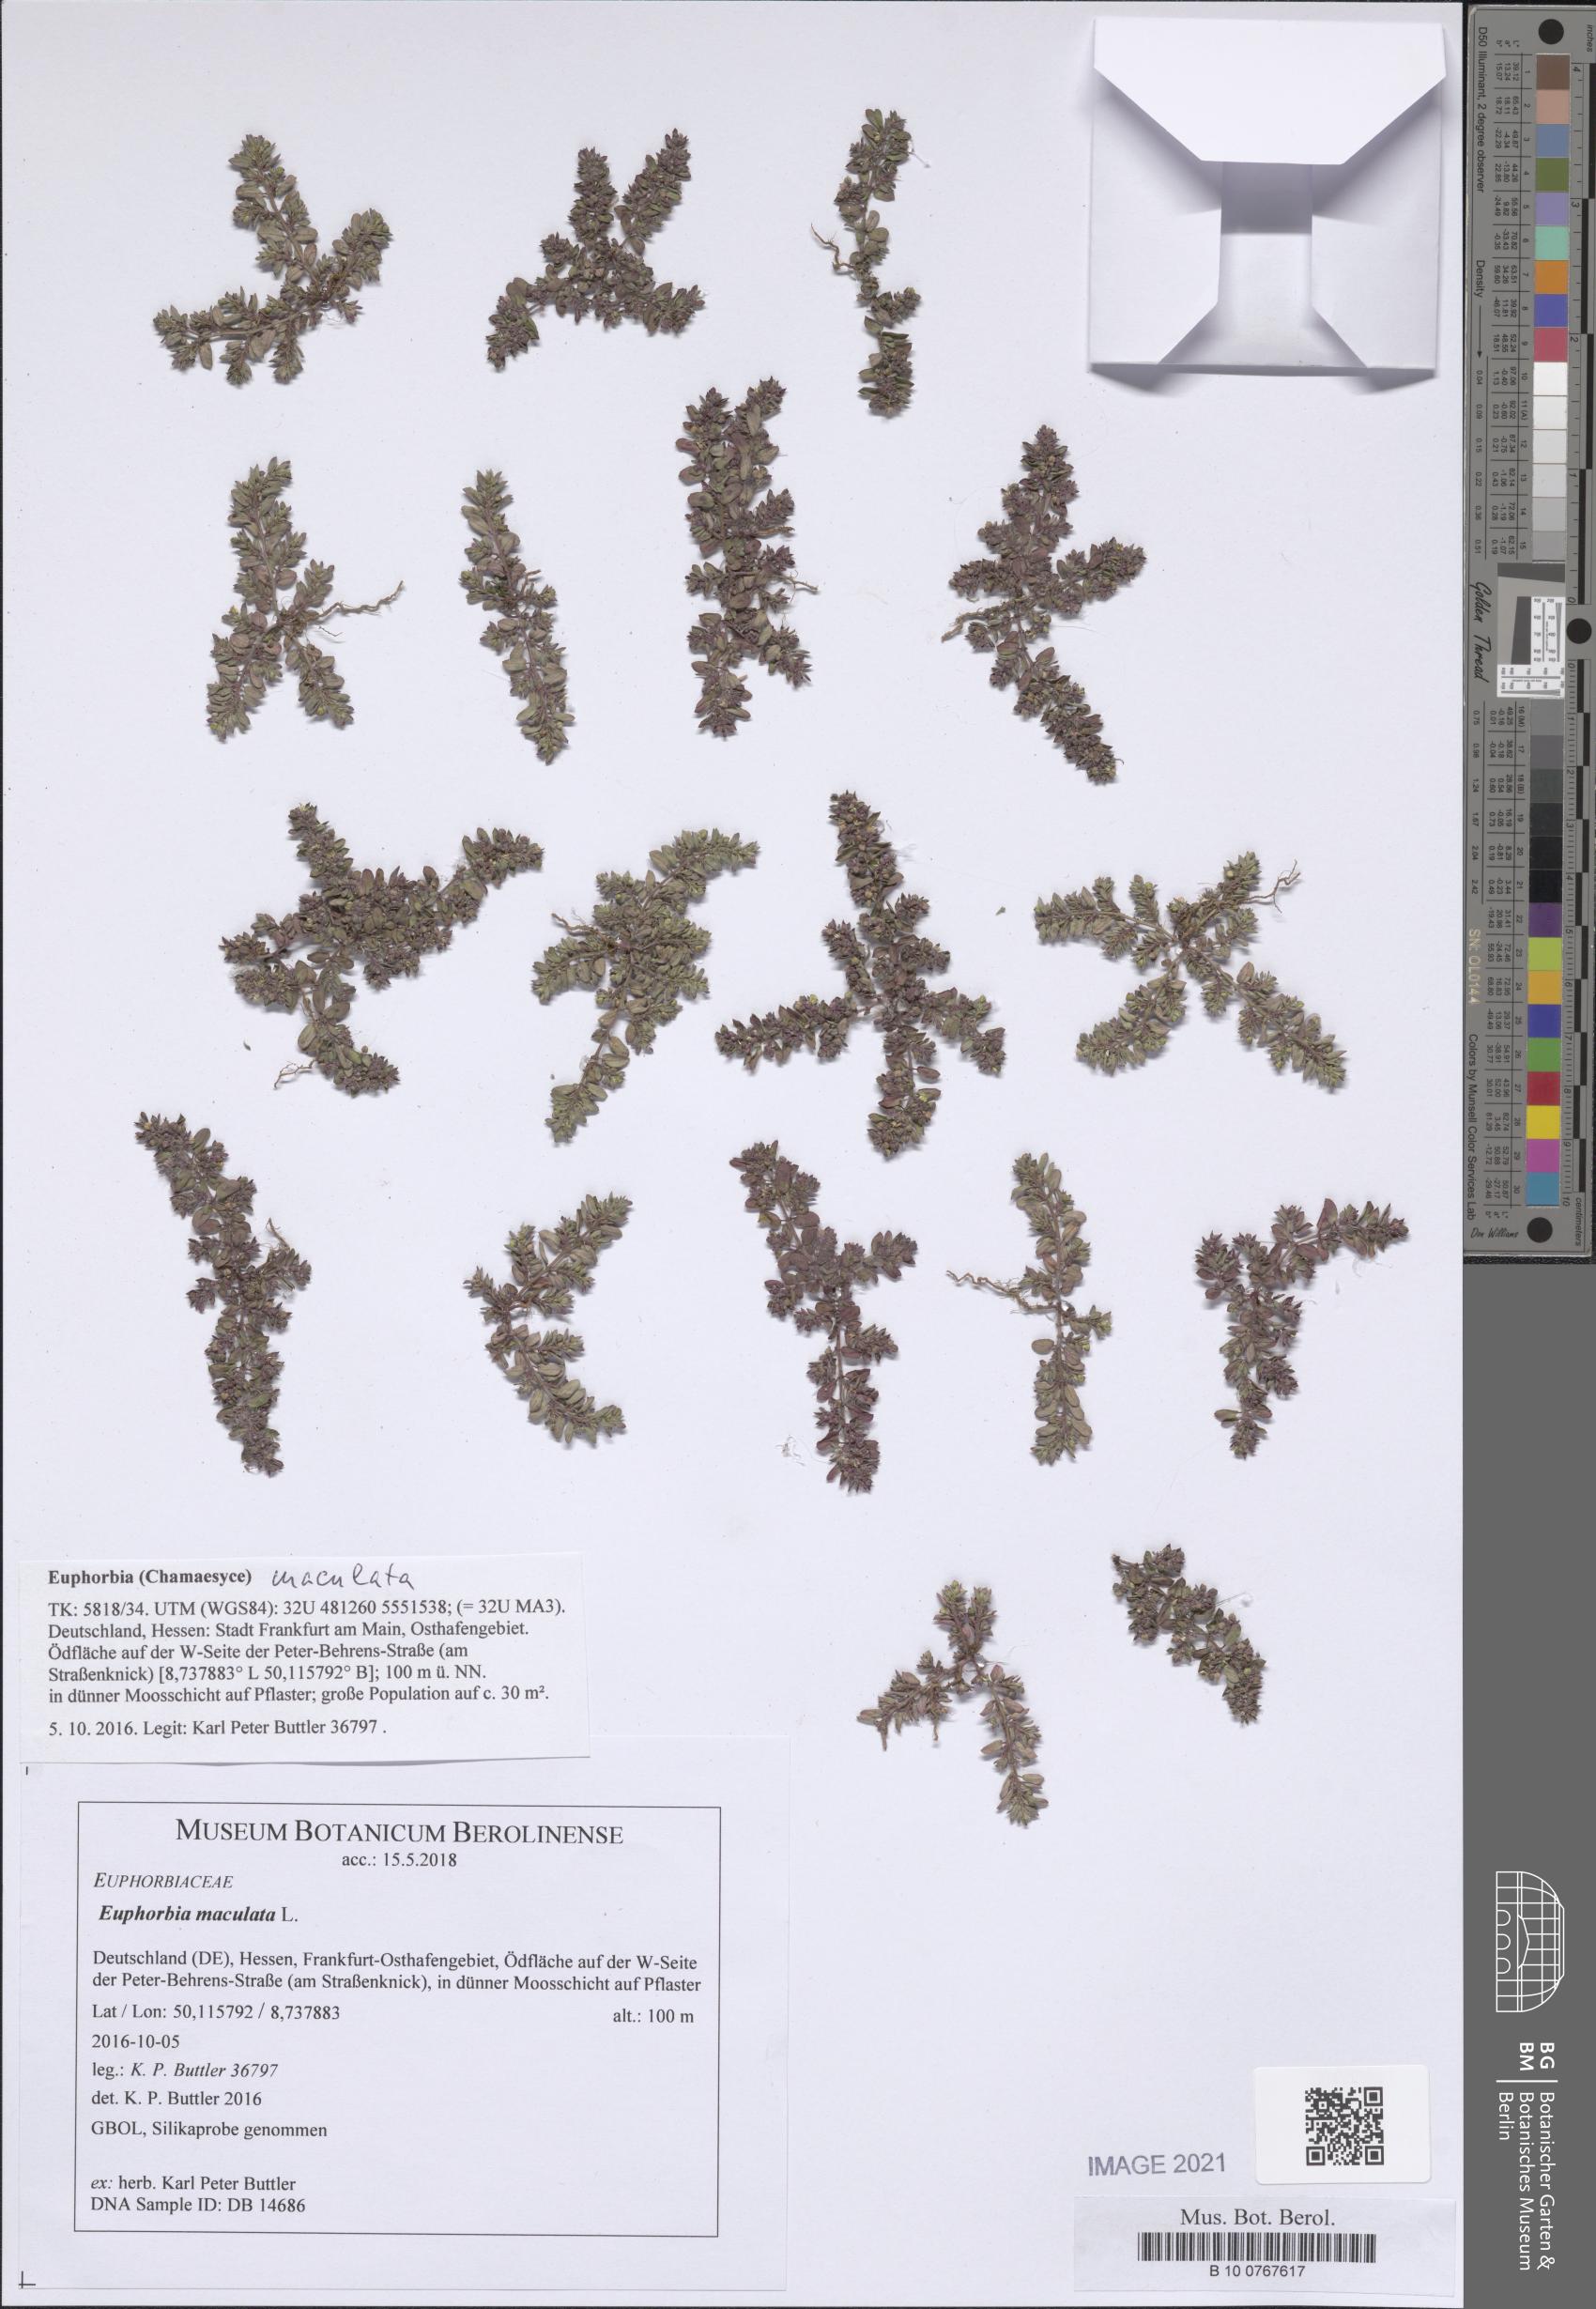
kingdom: Plantae
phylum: Tracheophyta
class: Magnoliopsida
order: Malpighiales
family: Euphorbiaceae
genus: Euphorbia
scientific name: Euphorbia maculata
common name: Spotted spurge
